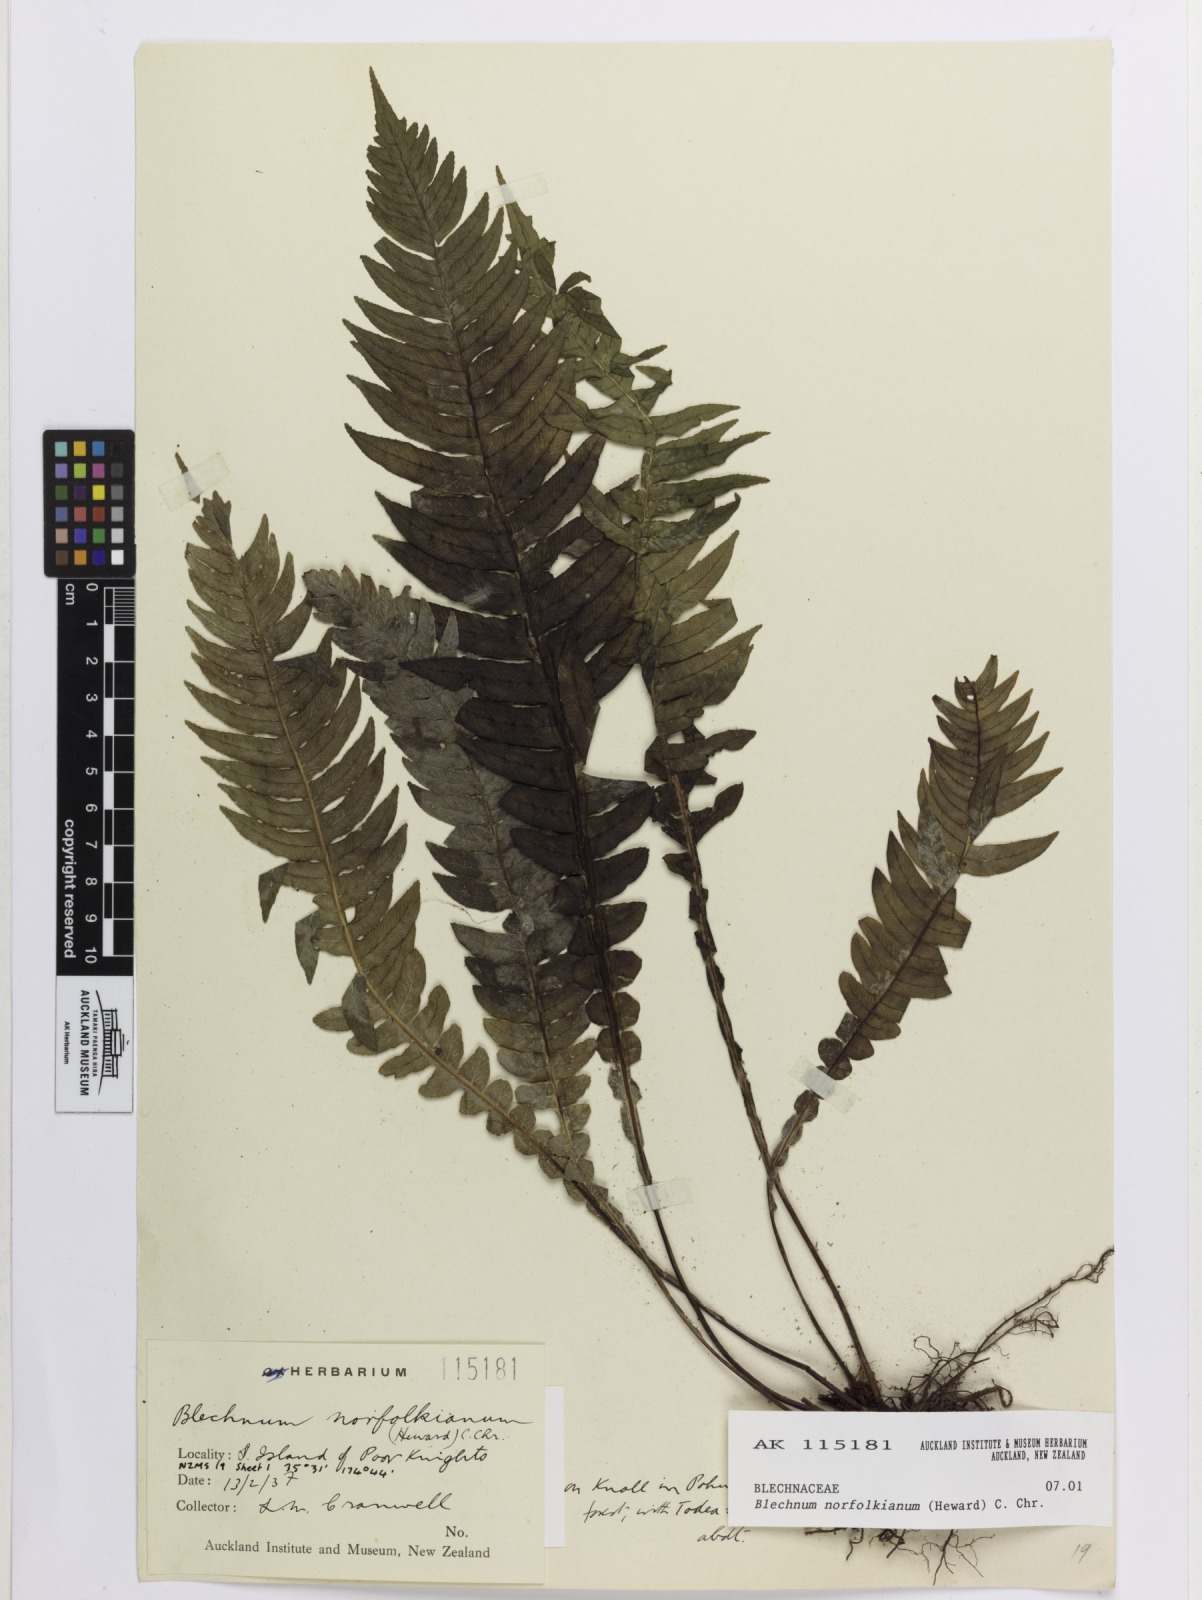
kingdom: Plantae
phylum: Tracheophyta
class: Polypodiopsida
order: Polypodiales
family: Blechnaceae
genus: Austroblechnum
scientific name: Austroblechnum norfolkianum
